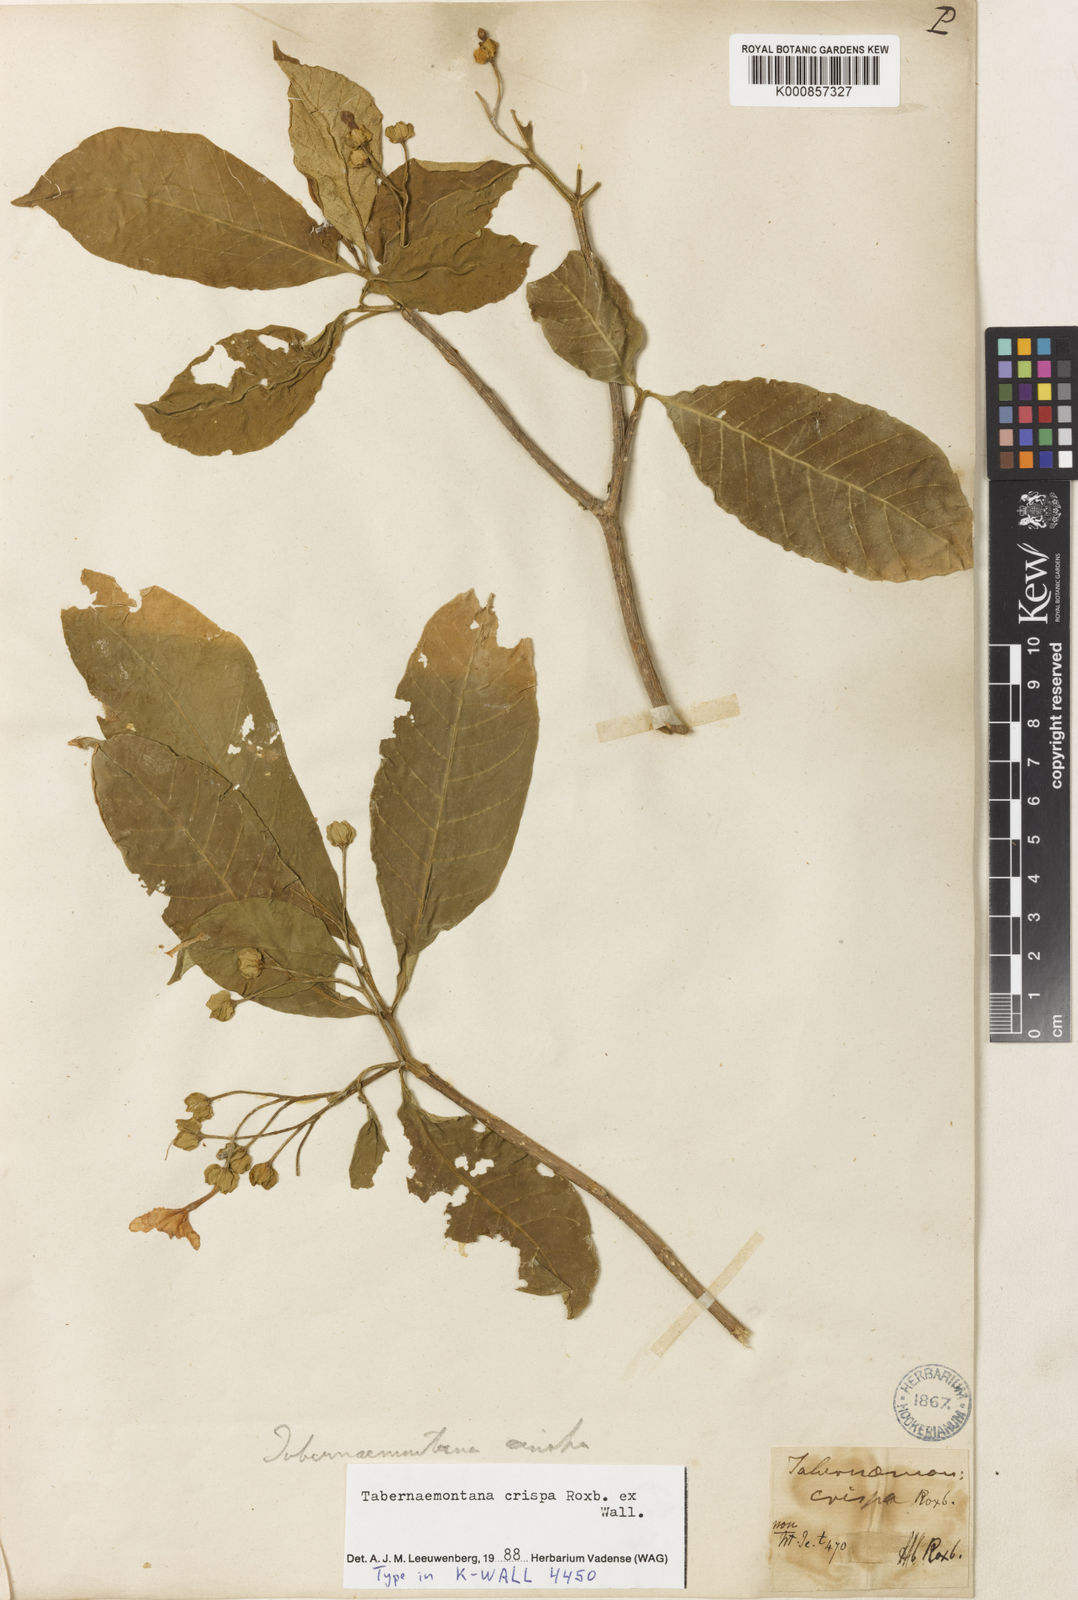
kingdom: Plantae
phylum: Tracheophyta
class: Magnoliopsida
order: Gentianales
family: Apocynaceae
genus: Tabernaemontana
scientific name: Tabernaemontana rostrata
